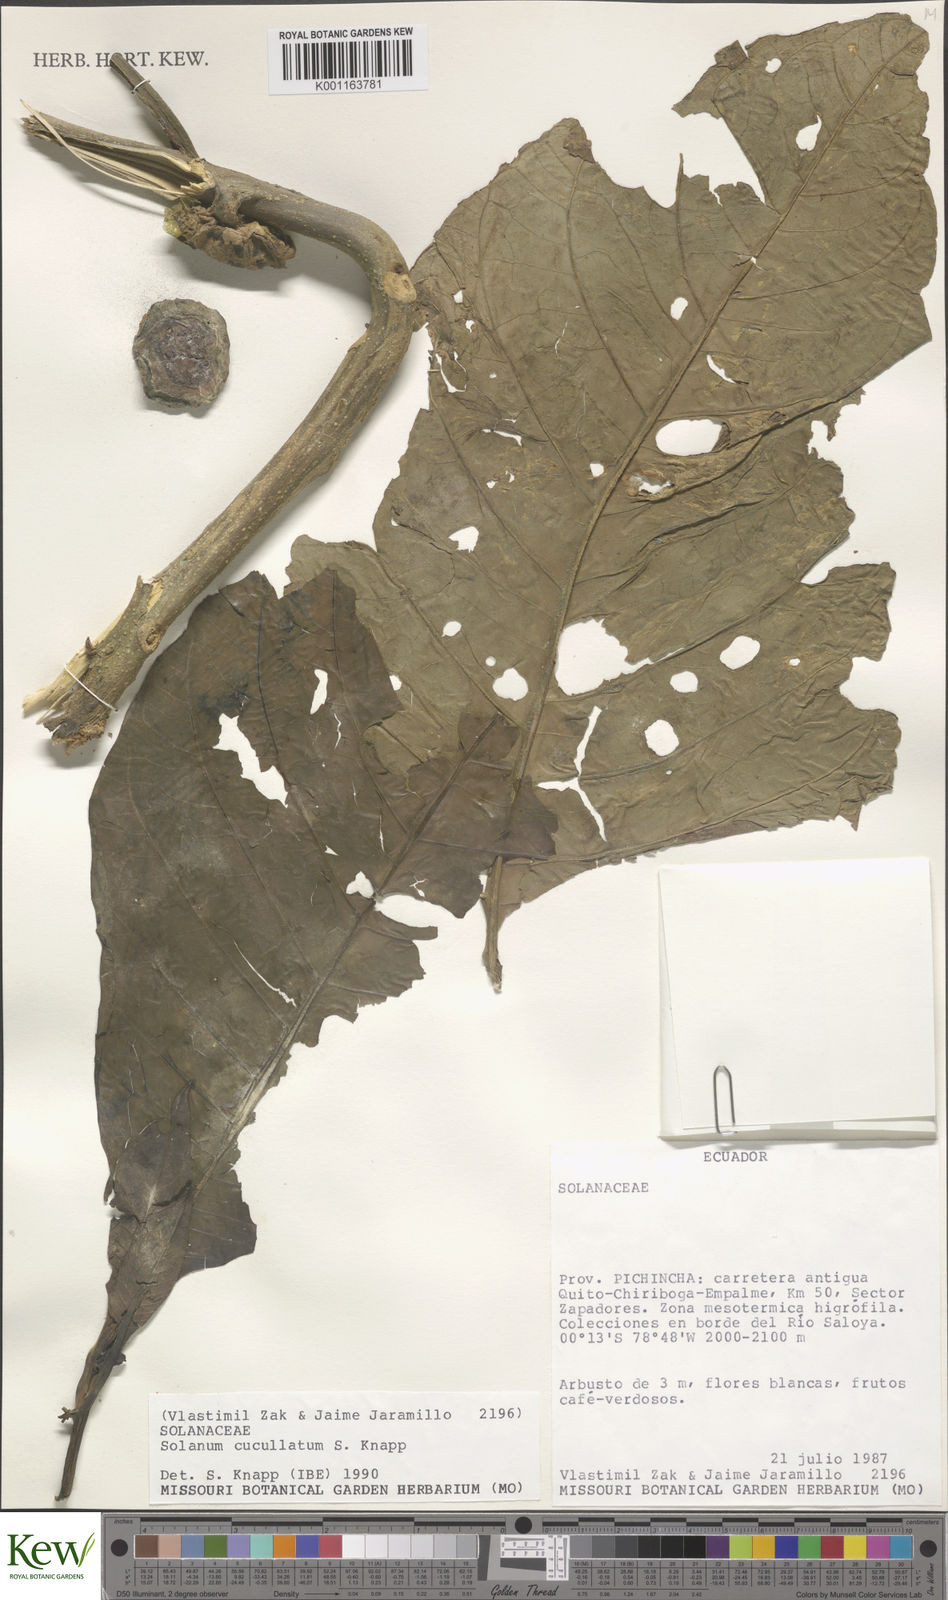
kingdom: Plantae
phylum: Tracheophyta
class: Magnoliopsida
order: Solanales
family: Solanaceae
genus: Solanum
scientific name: Solanum cucullatum
